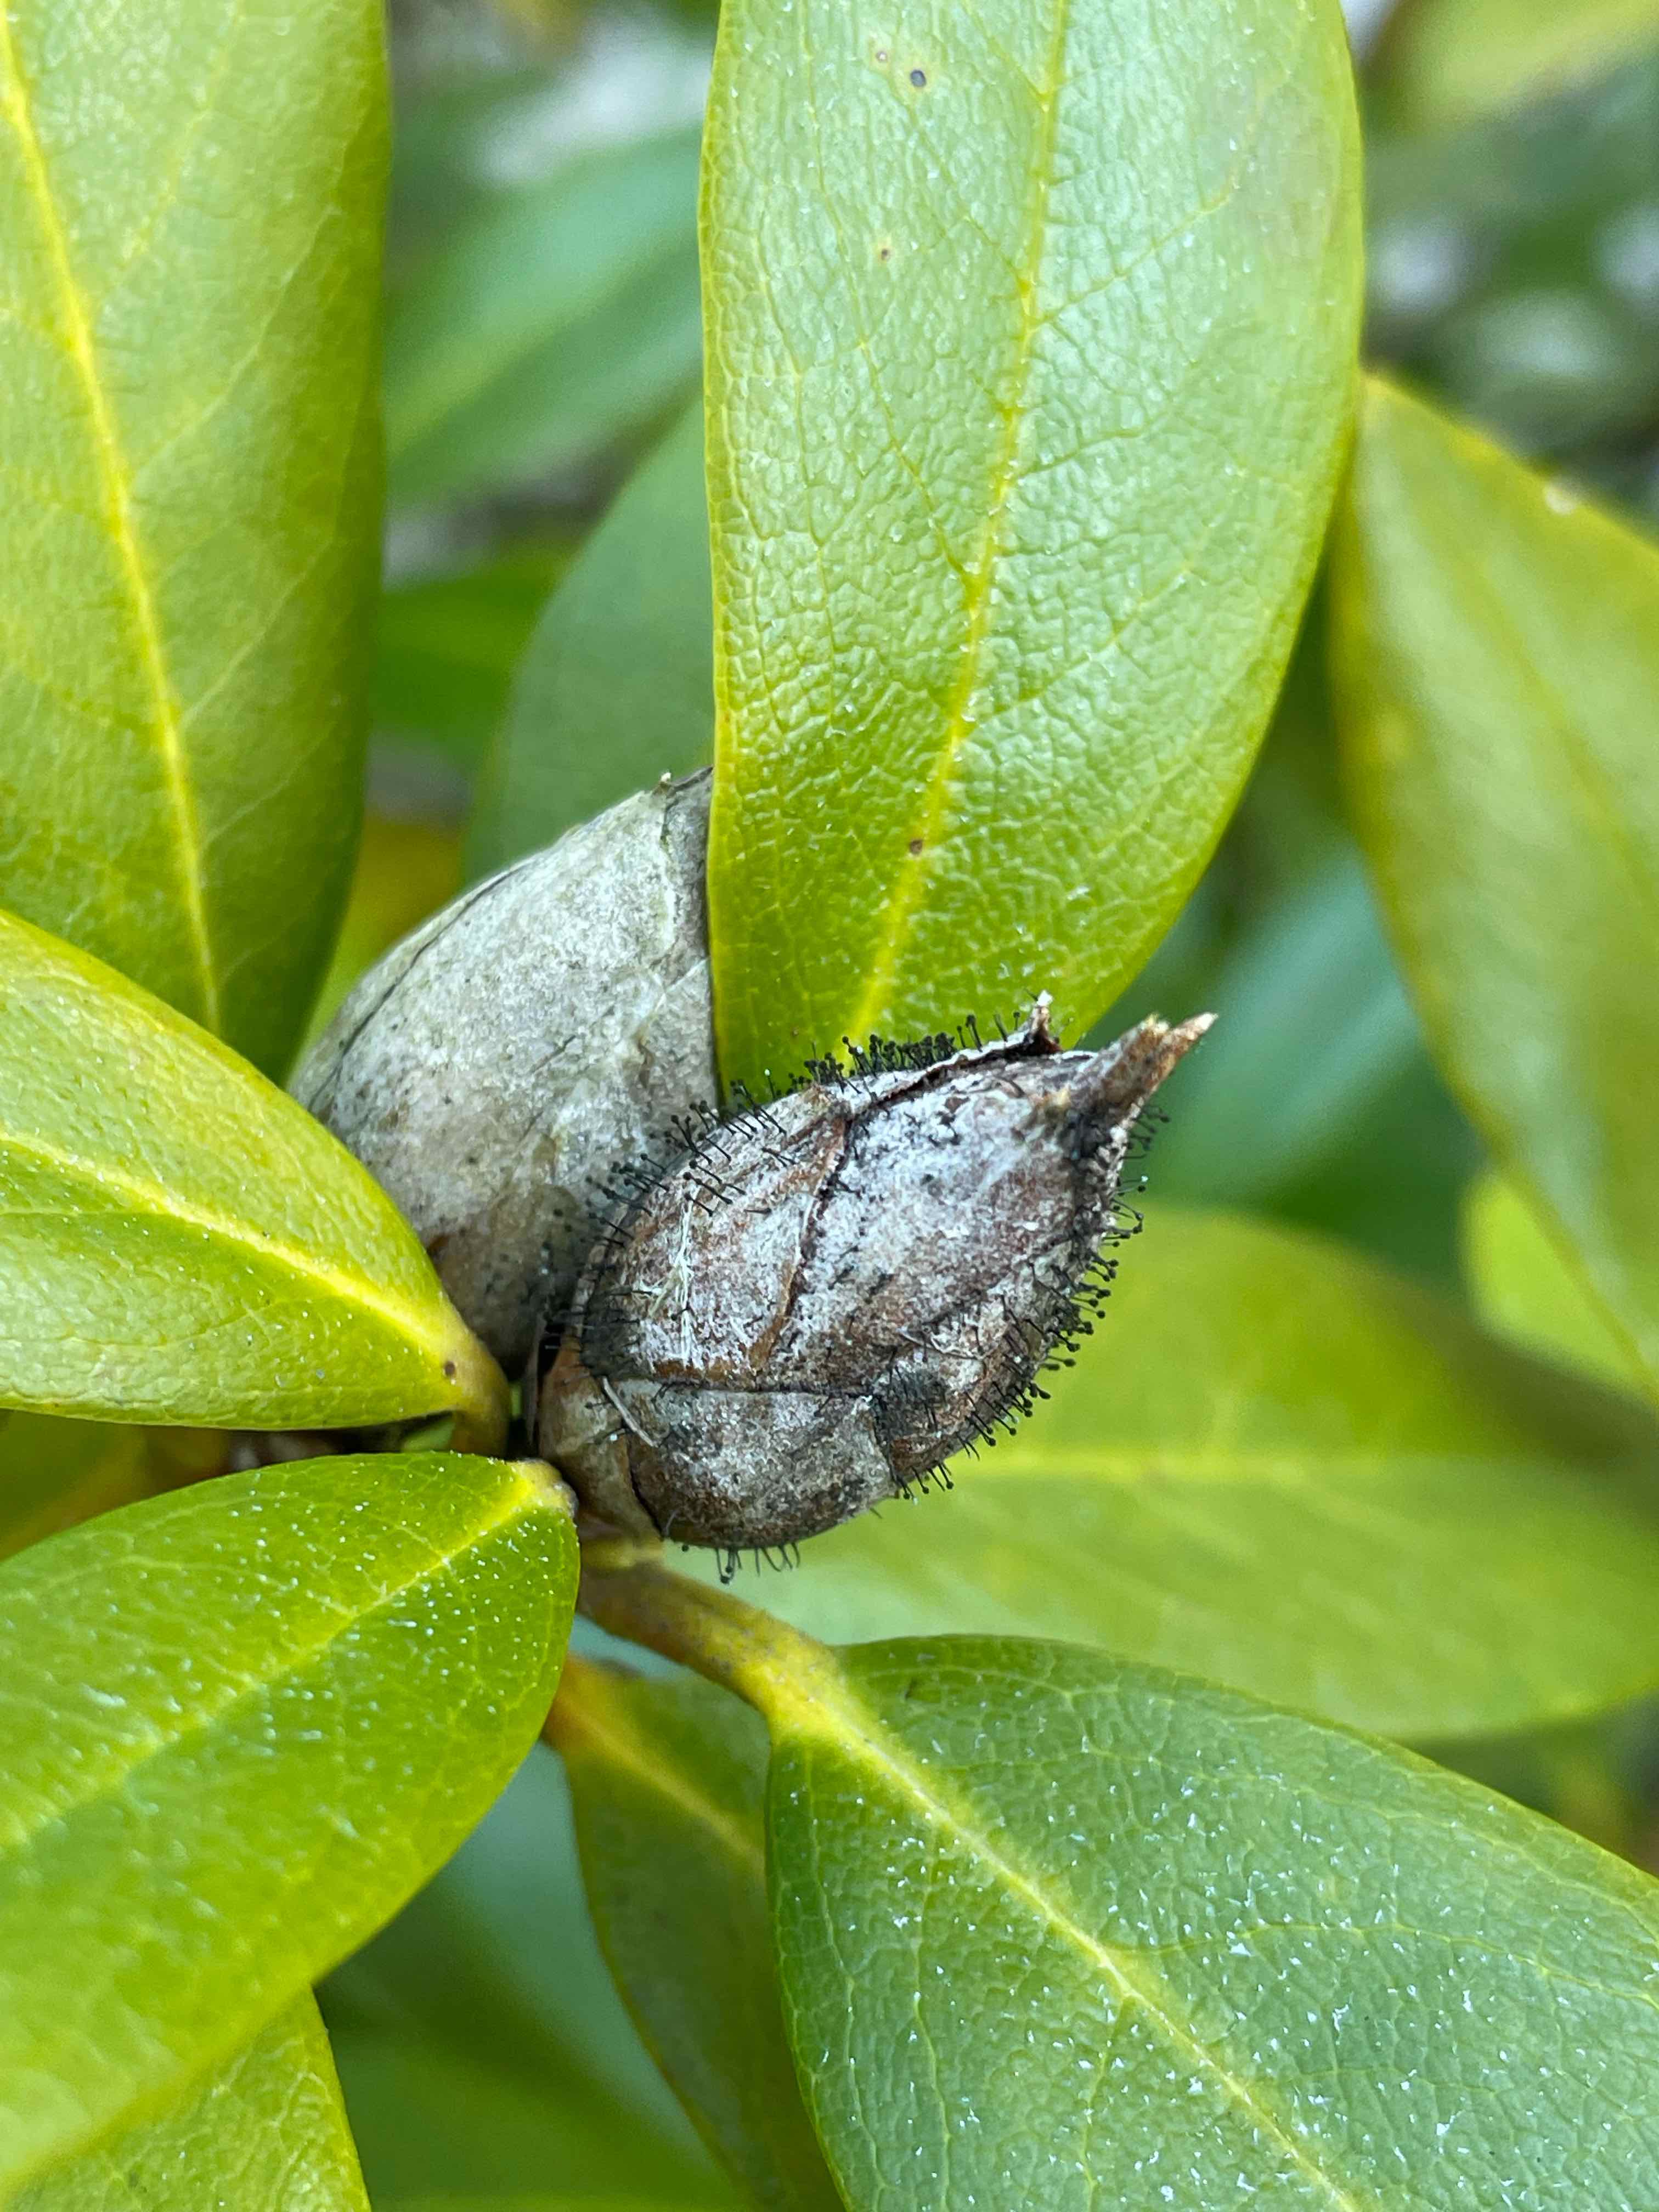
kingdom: Fungi
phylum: Ascomycota
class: Dothideomycetes
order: Pleosporales
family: Melanommataceae
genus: Seifertia
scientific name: Seifertia azaleae
